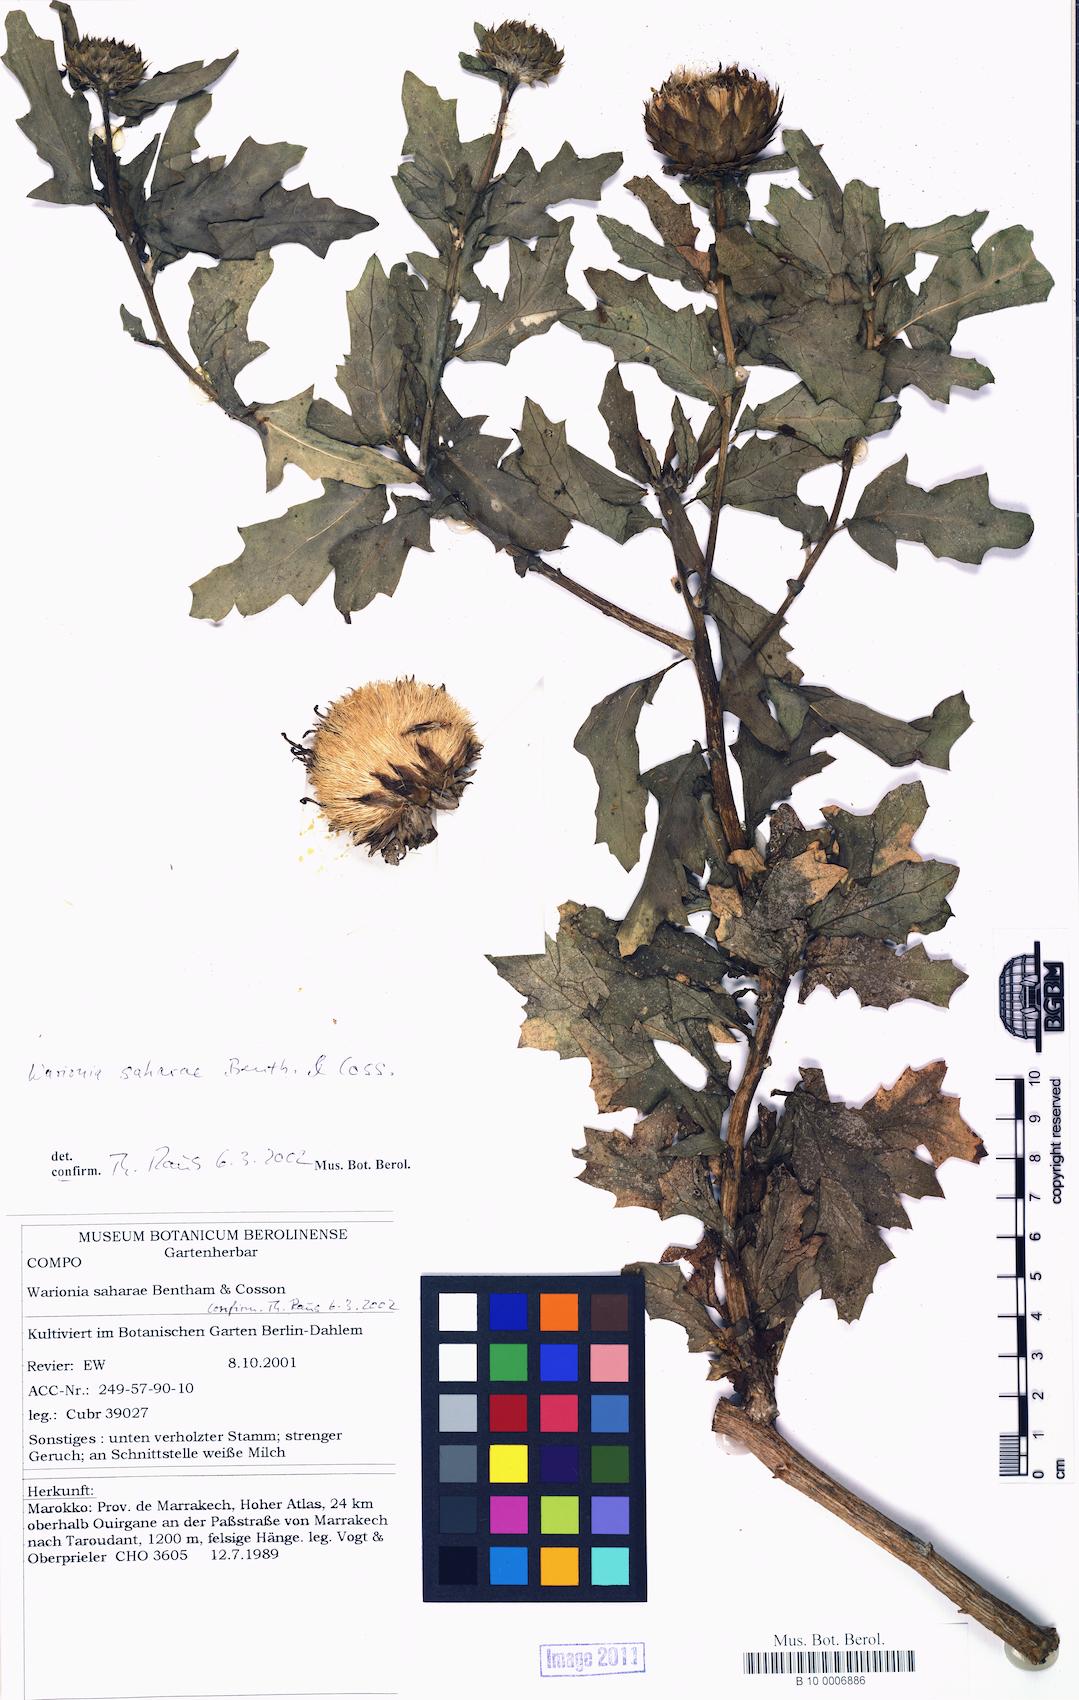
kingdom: Plantae
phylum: Tracheophyta
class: Magnoliopsida
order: Asterales
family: Asteraceae
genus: Warionia
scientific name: Warionia saharae
